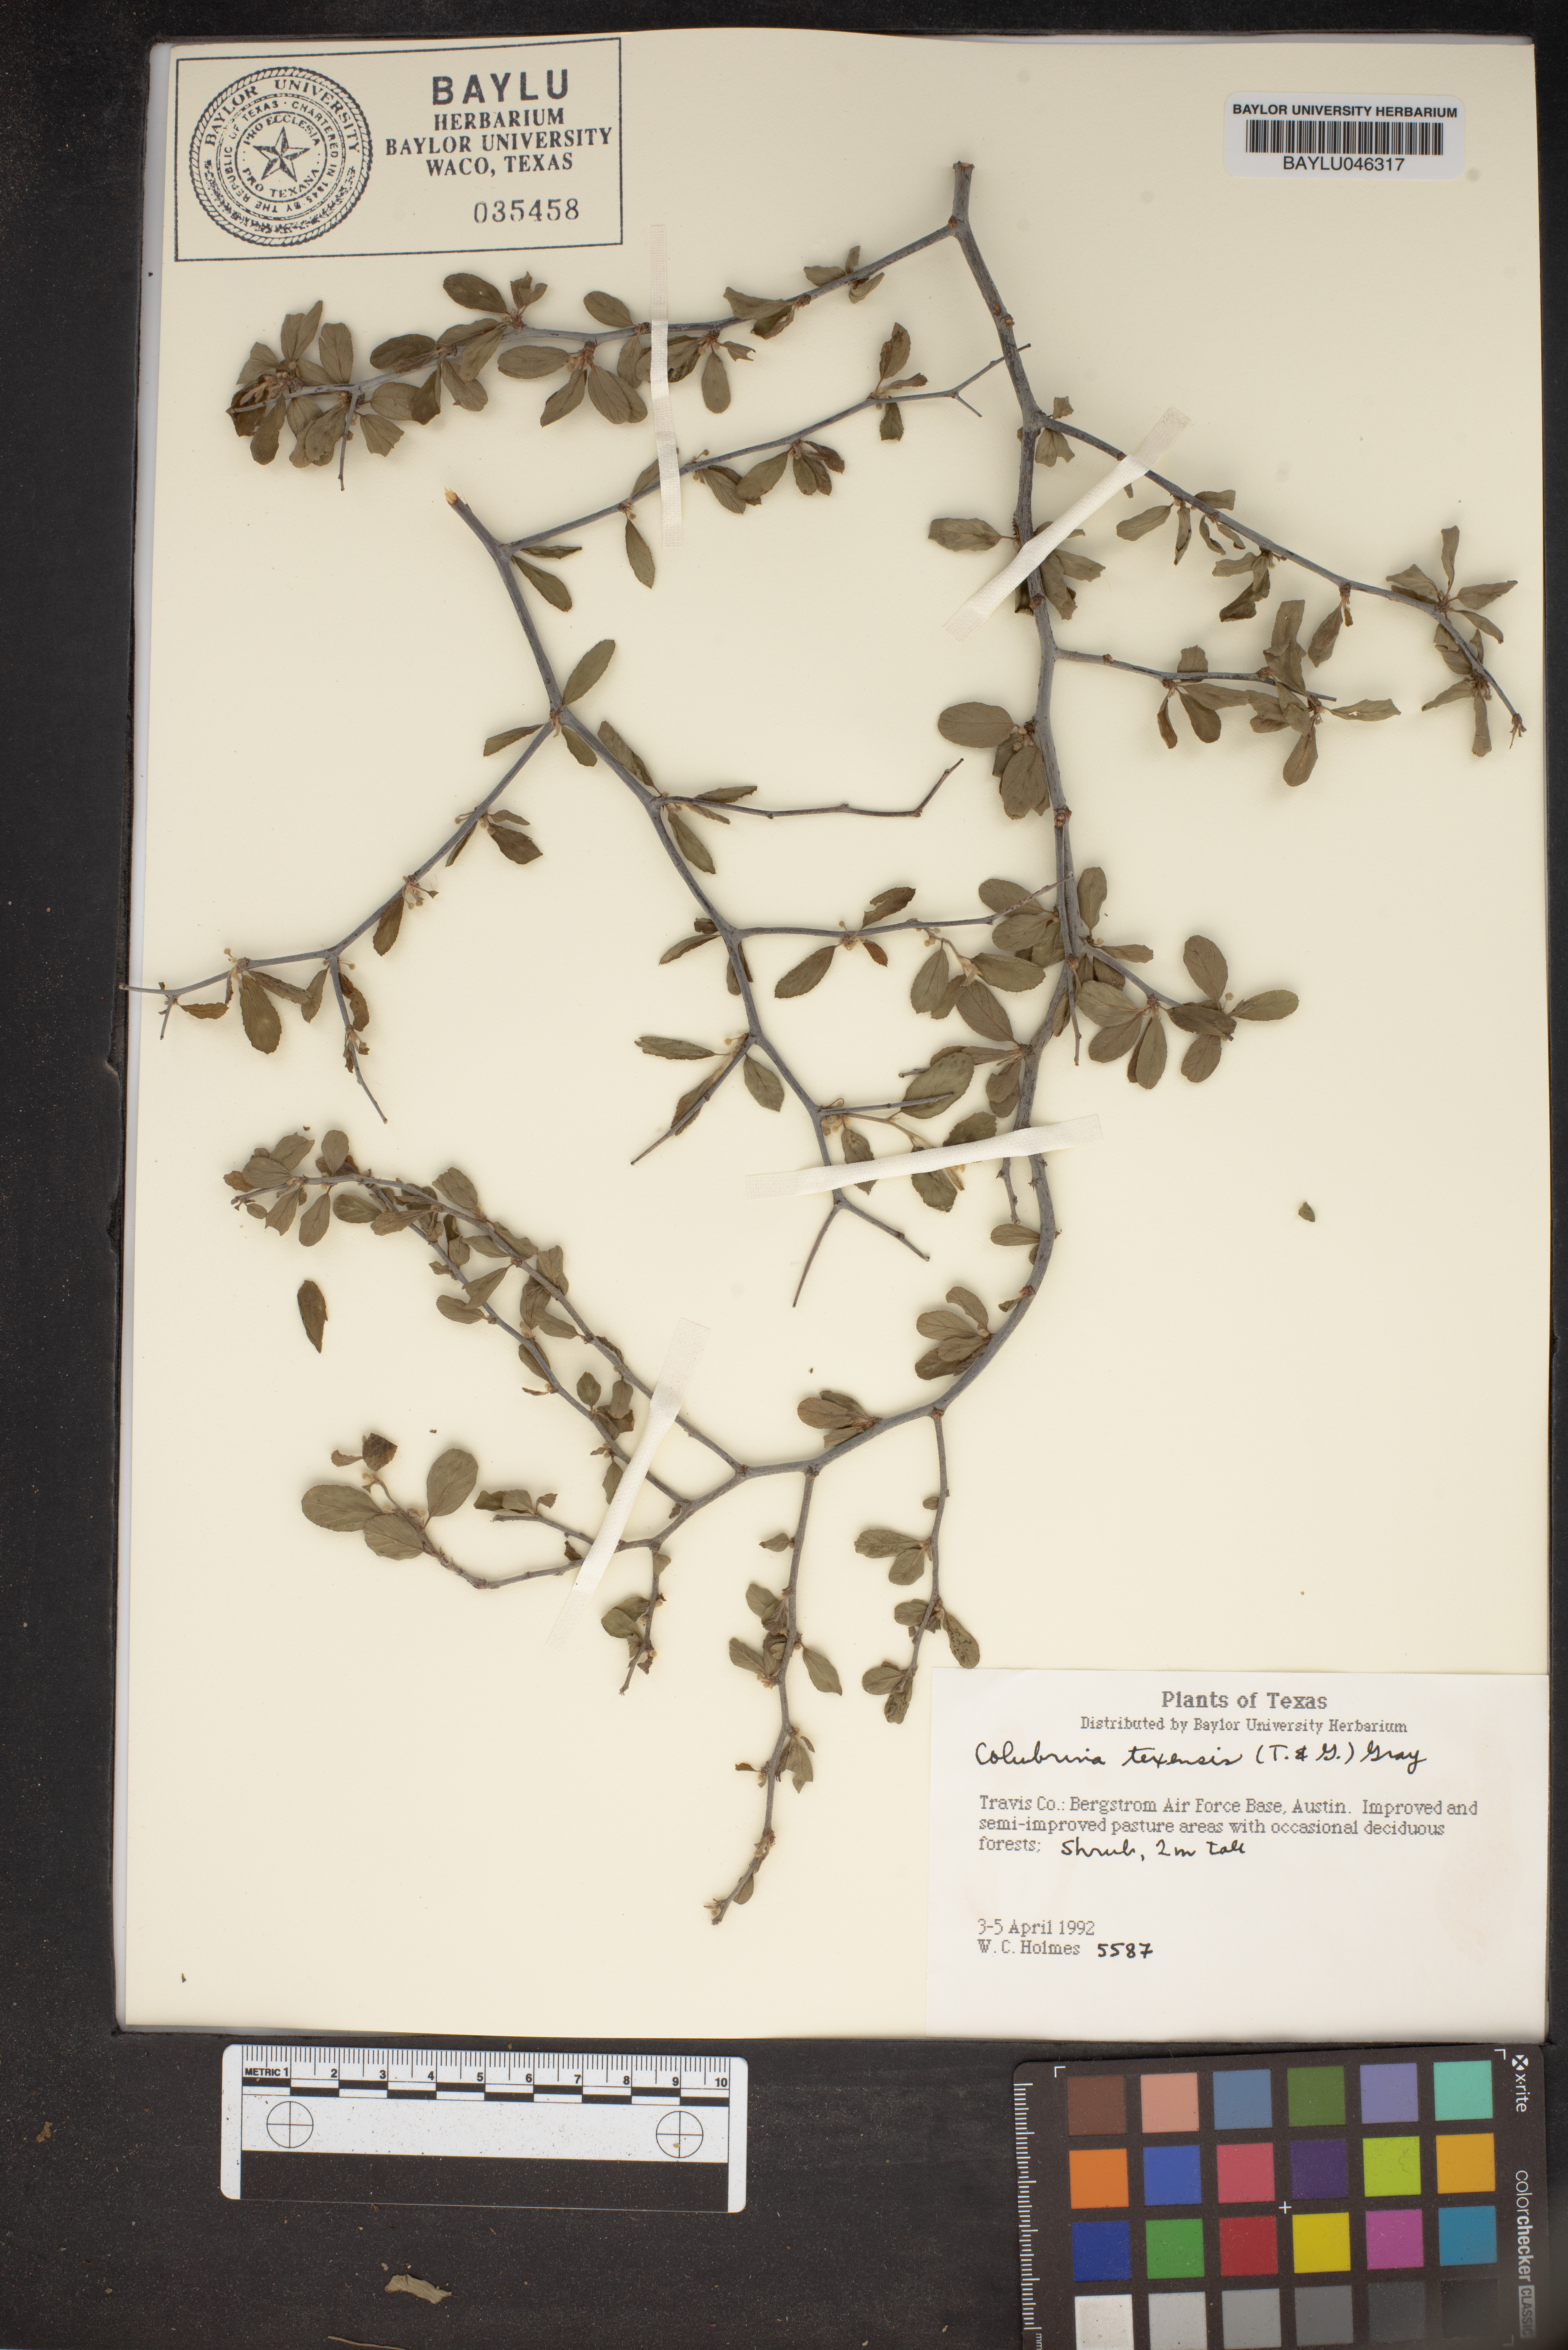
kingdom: Plantae
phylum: Tracheophyta
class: Magnoliopsida
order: Rosales
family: Rhamnaceae
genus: Colubrina
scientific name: Colubrina texensis
